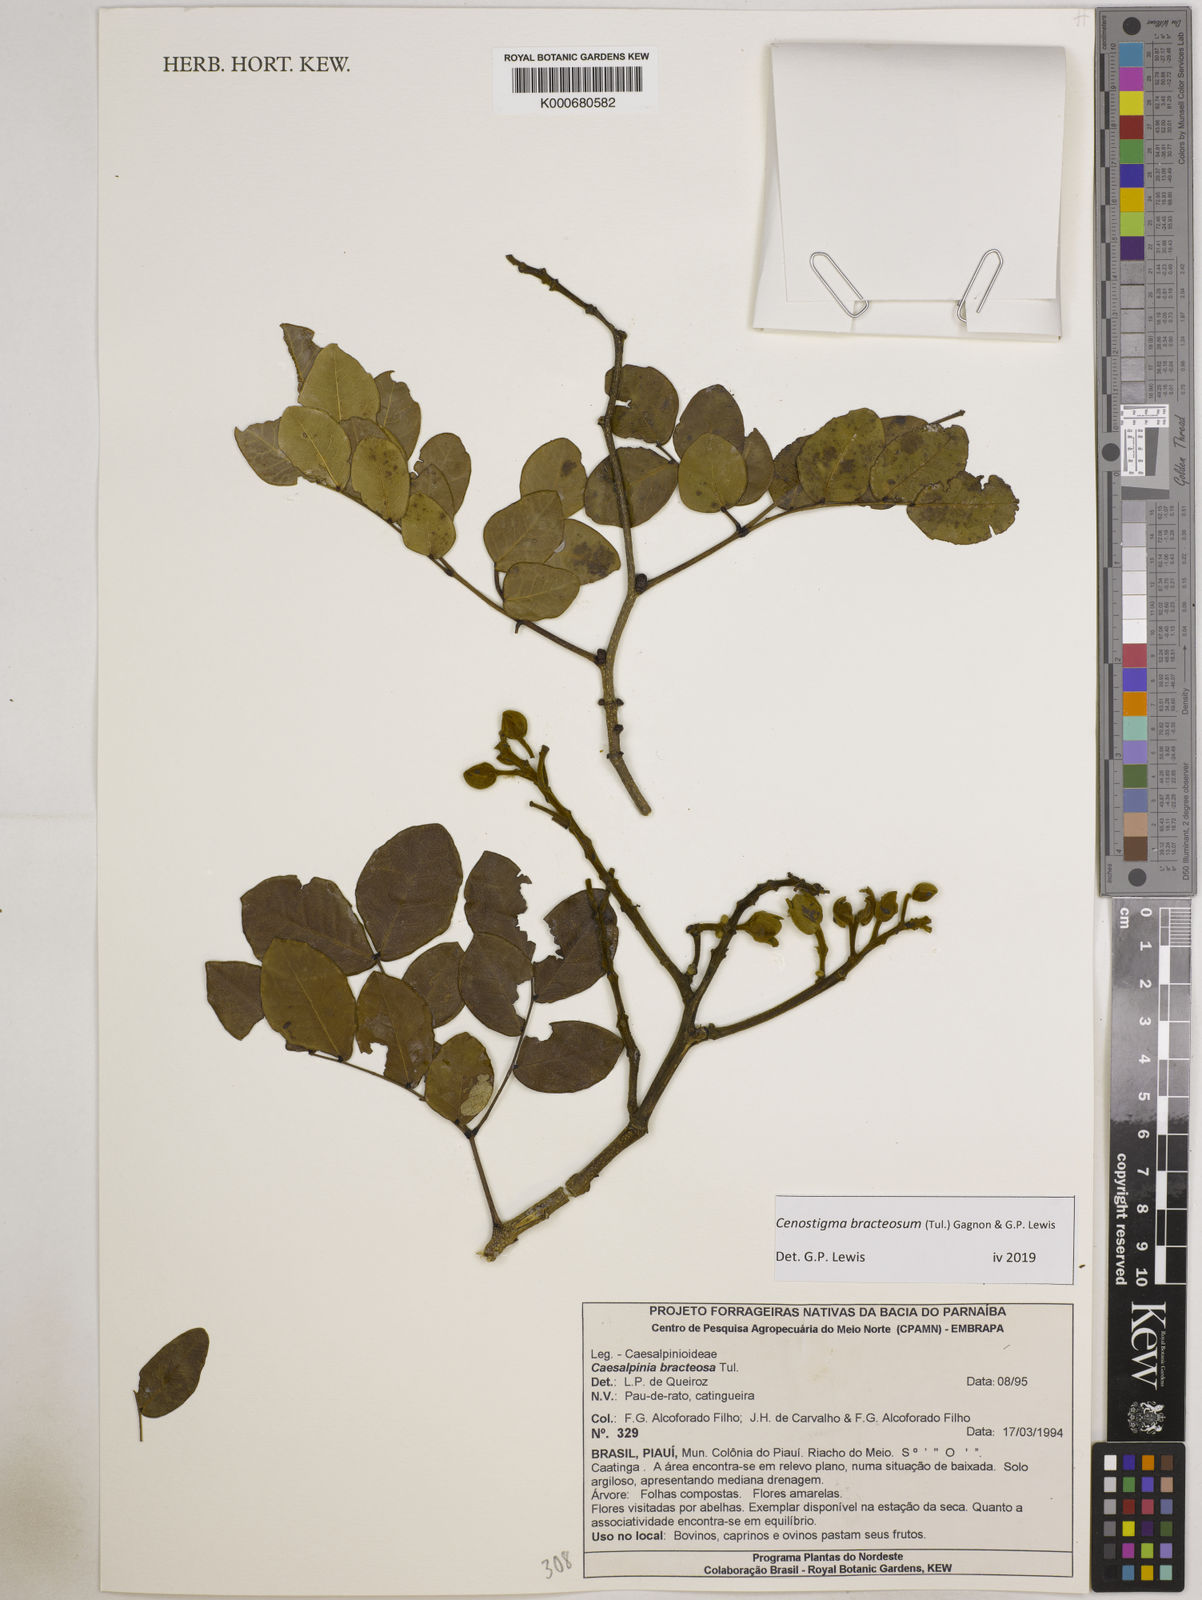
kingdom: Plantae
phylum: Tracheophyta
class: Magnoliopsida
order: Fabales
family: Fabaceae
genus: Cenostigma
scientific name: Cenostigma bracteosum
